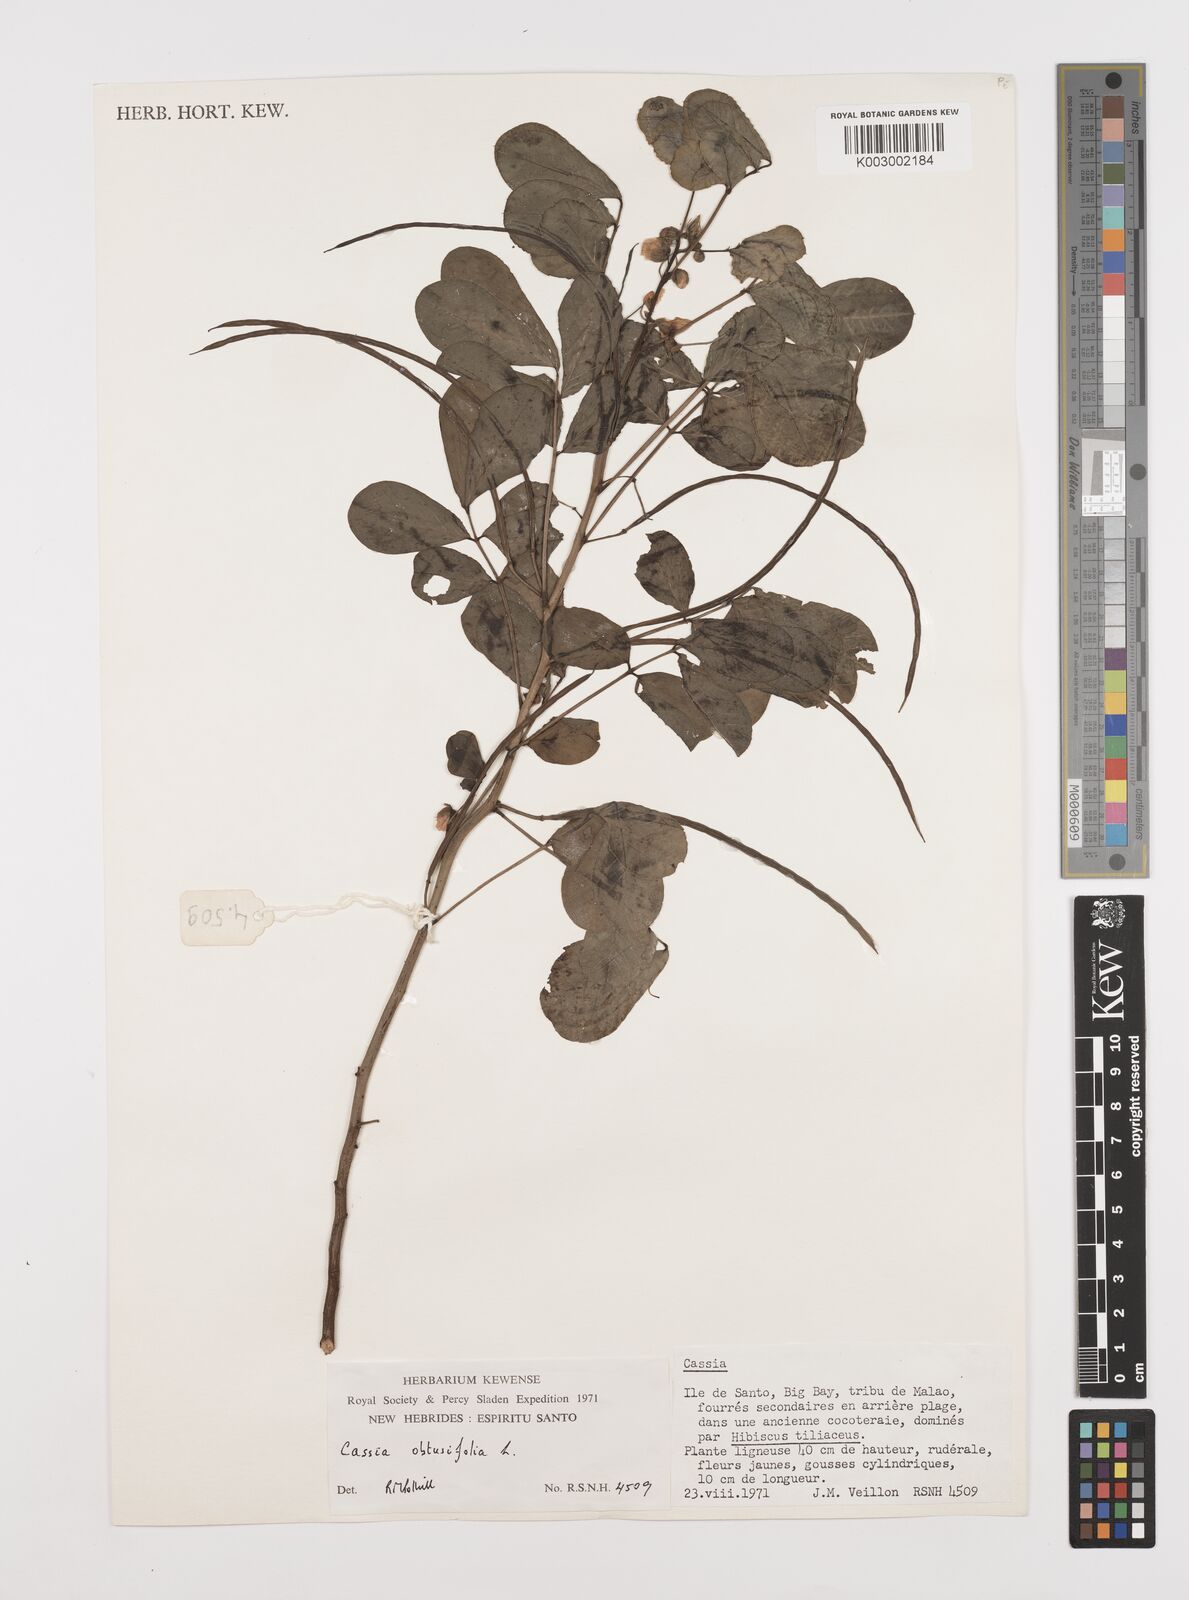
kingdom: Plantae
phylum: Tracheophyta
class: Magnoliopsida
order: Fabales
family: Fabaceae
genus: Senna
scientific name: Senna obtusifolia
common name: Java-bean
